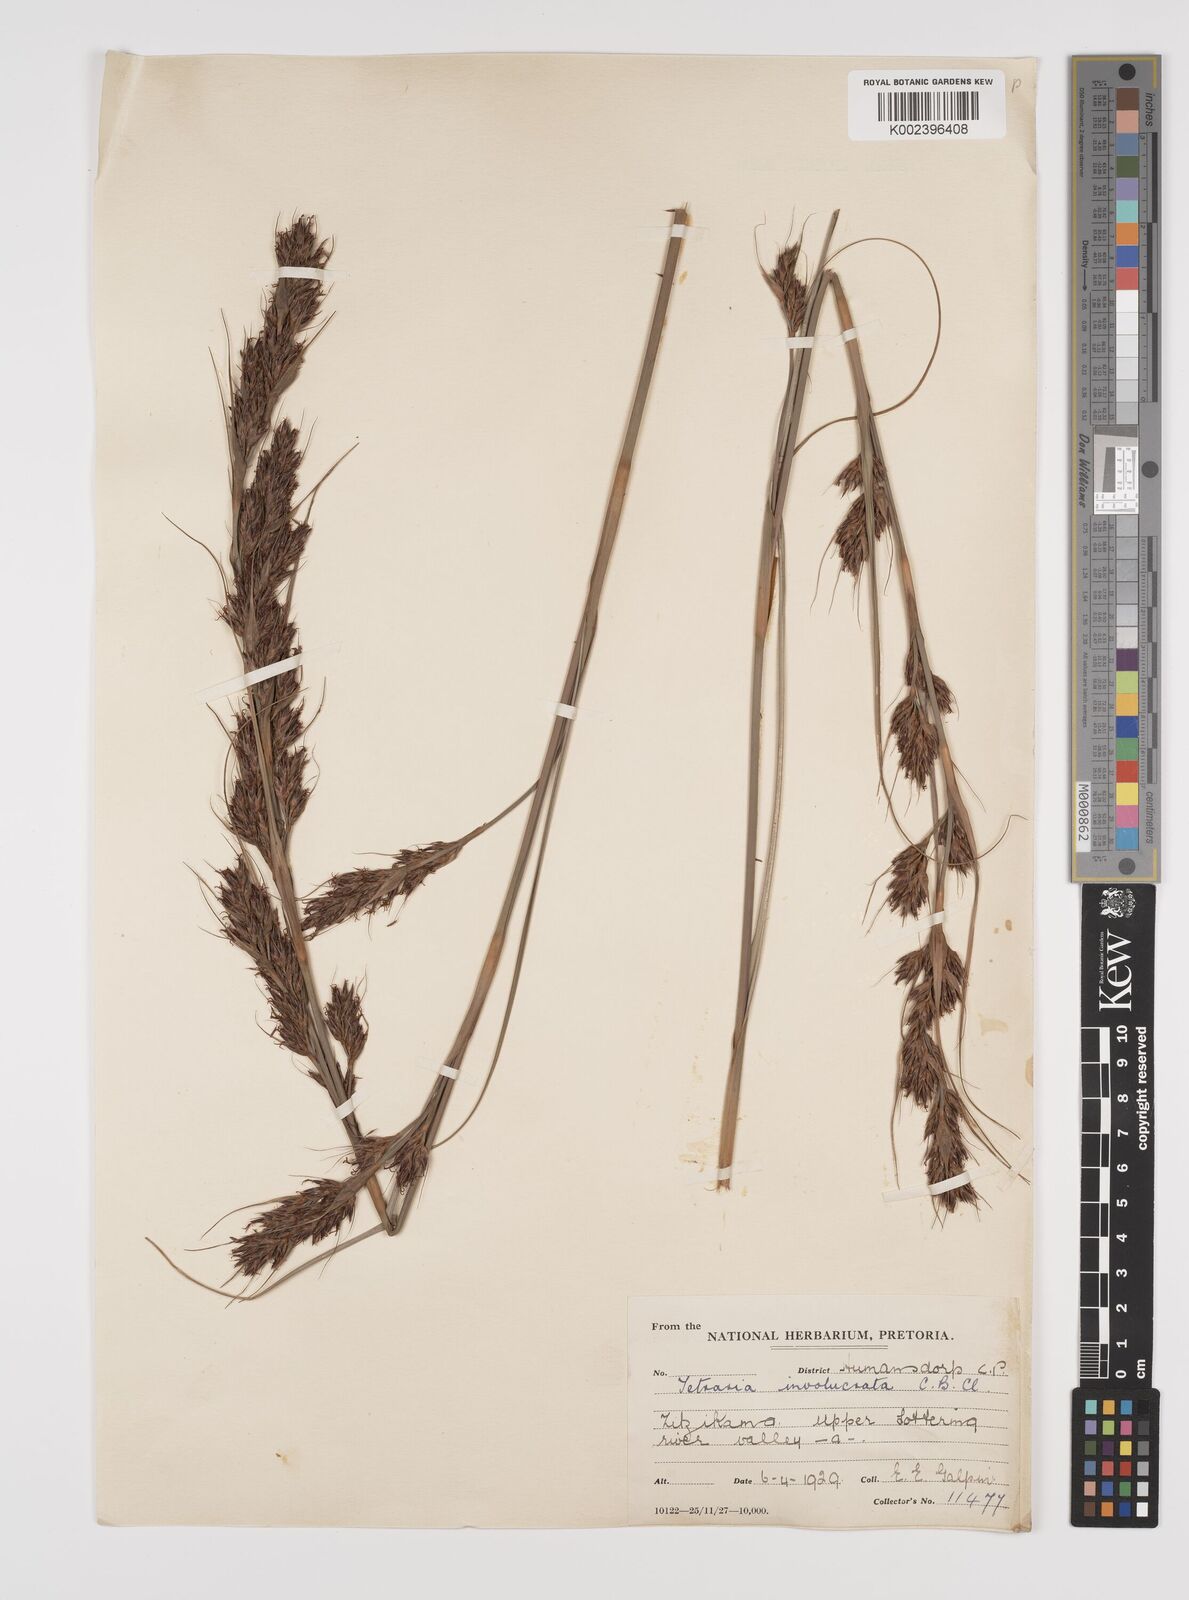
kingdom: Plantae
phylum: Tracheophyta
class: Liliopsida
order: Poales
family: Cyperaceae
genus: Tetraria
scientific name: Tetraria
